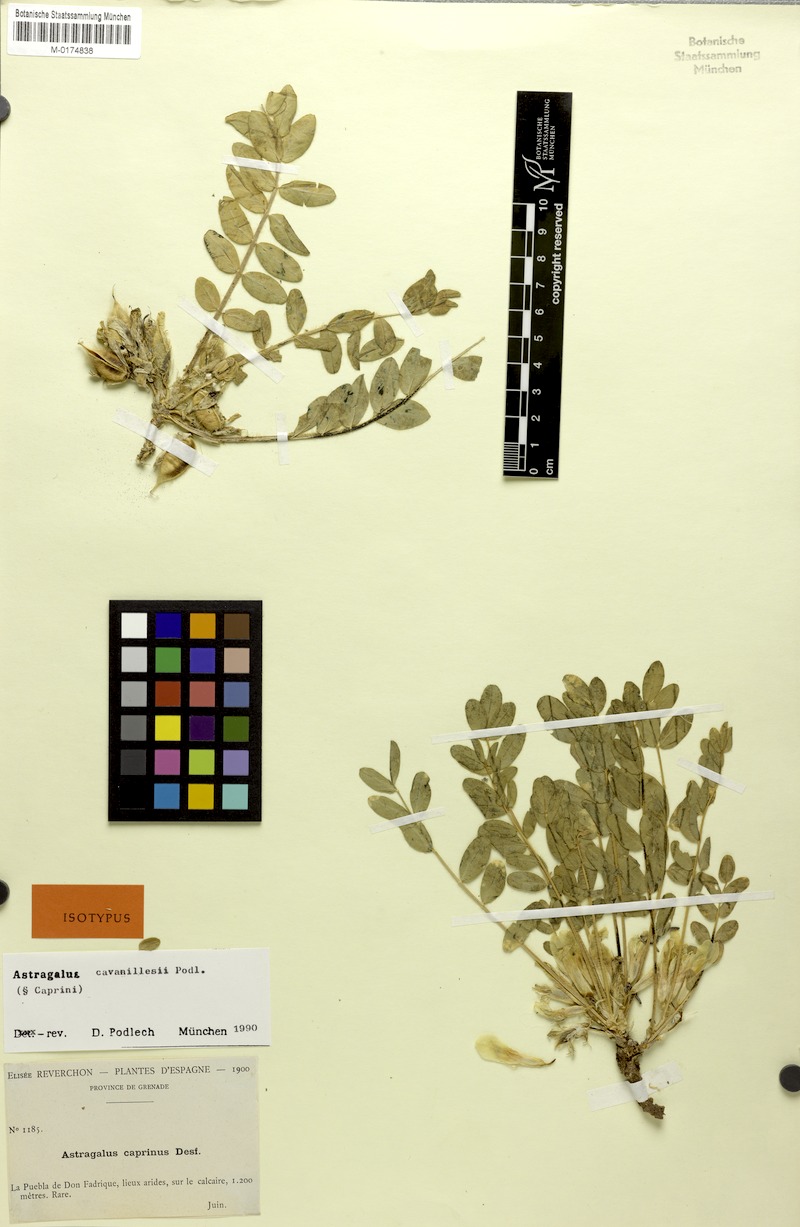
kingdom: Plantae
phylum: Tracheophyta
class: Magnoliopsida
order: Fabales
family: Fabaceae
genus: Astragalus
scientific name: Astragalus cavanillesii
